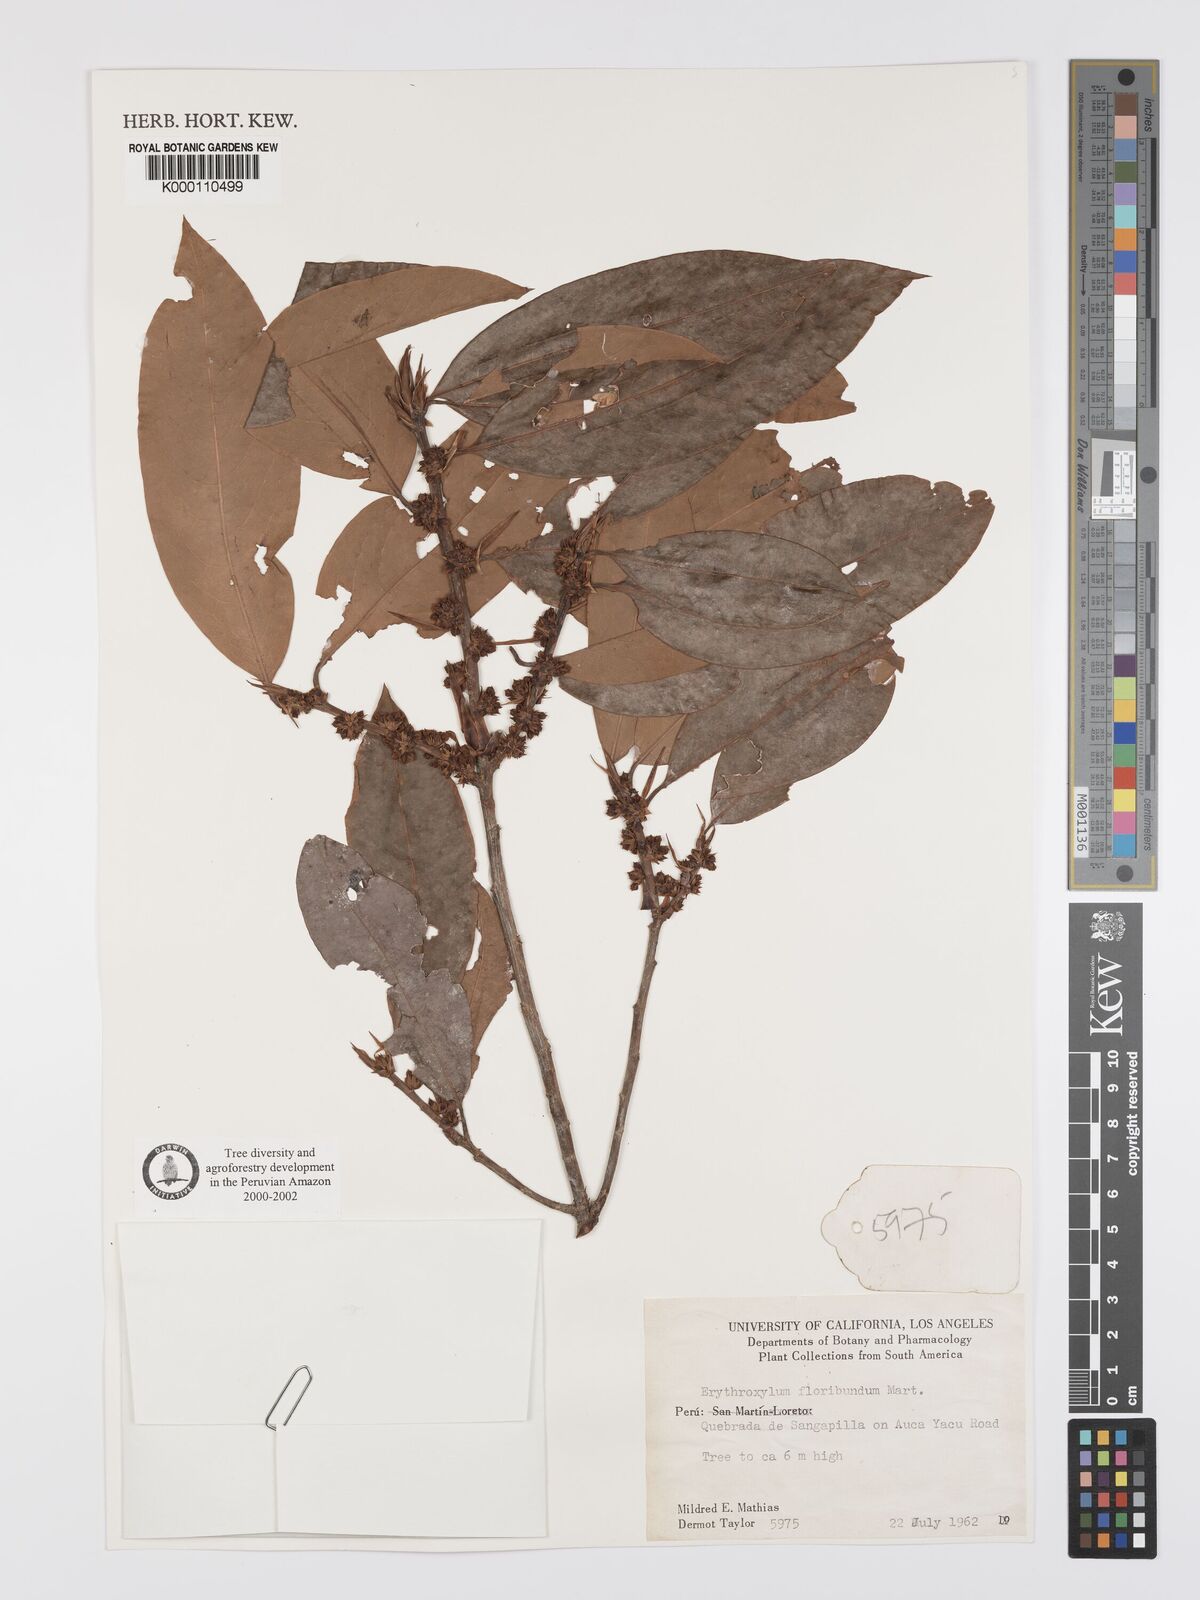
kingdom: Plantae
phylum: Tracheophyta
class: Magnoliopsida
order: Malpighiales
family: Erythroxylaceae
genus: Erythroxylum
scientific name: Erythroxylum
